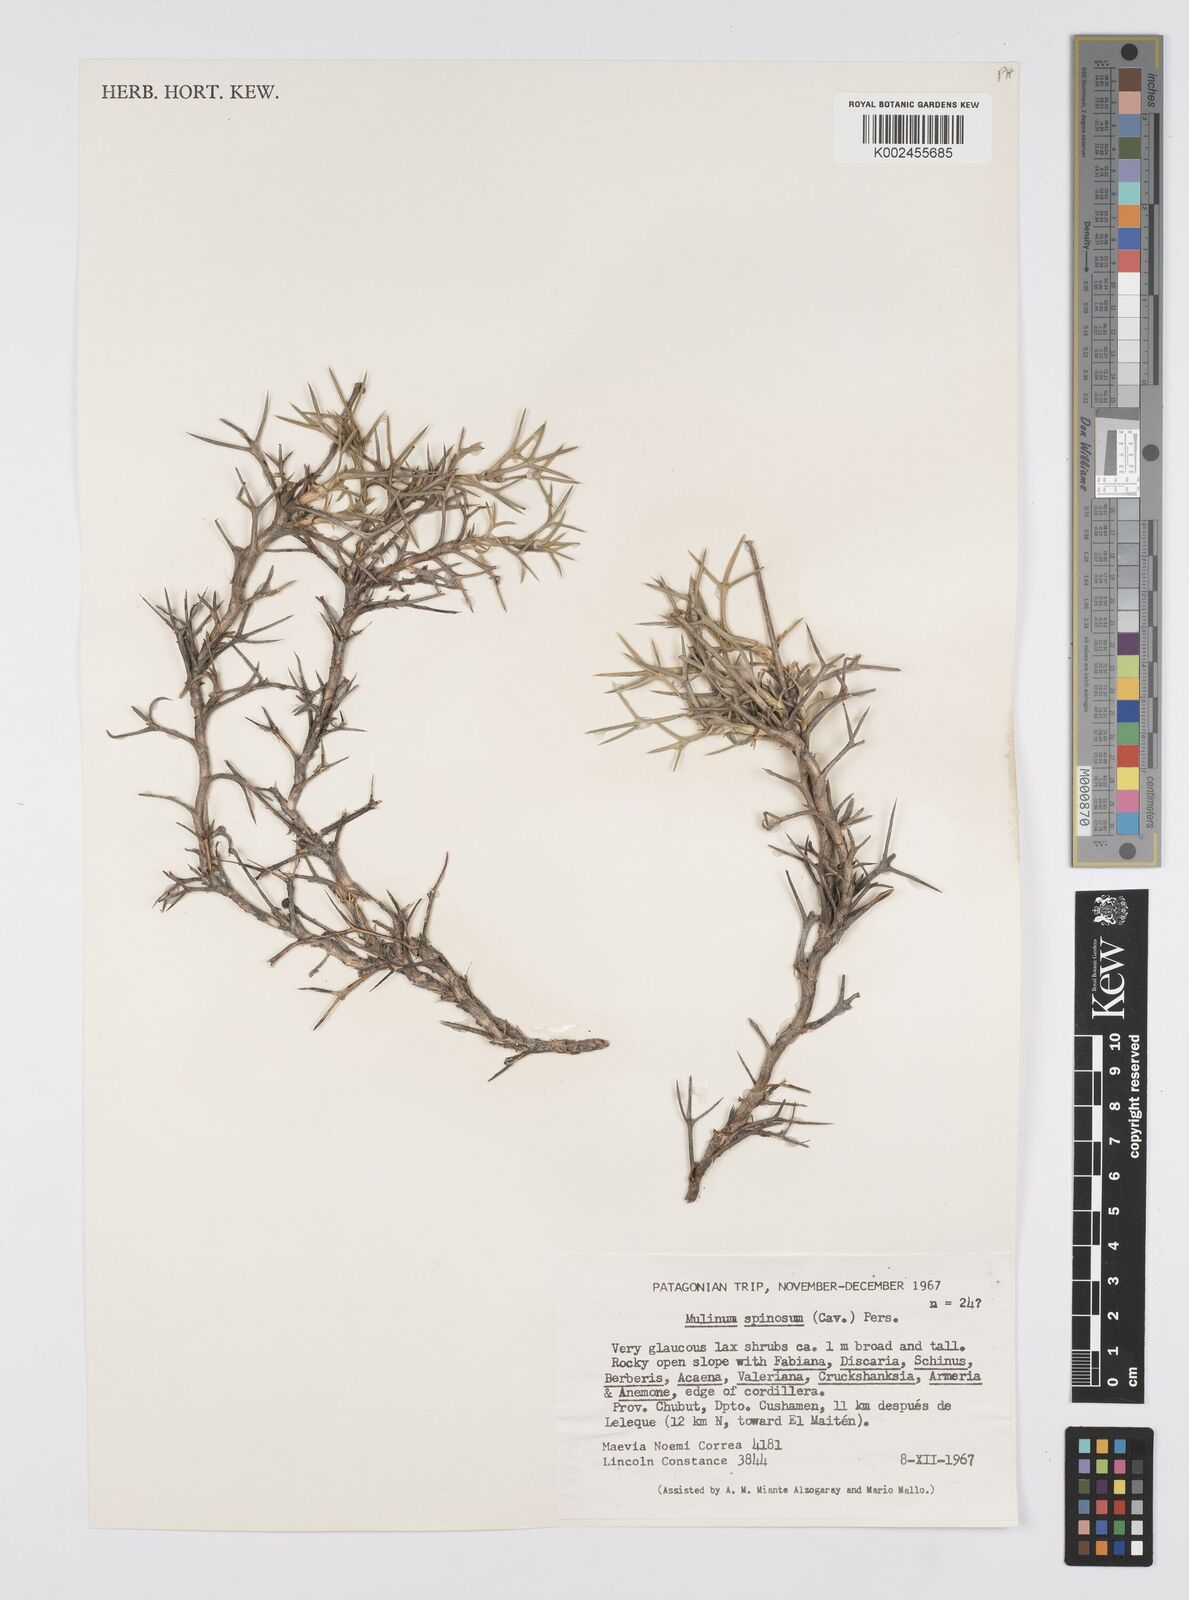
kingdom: Plantae
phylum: Tracheophyta
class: Magnoliopsida
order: Apiales
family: Apiaceae
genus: Azorella
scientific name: Azorella prolifera
